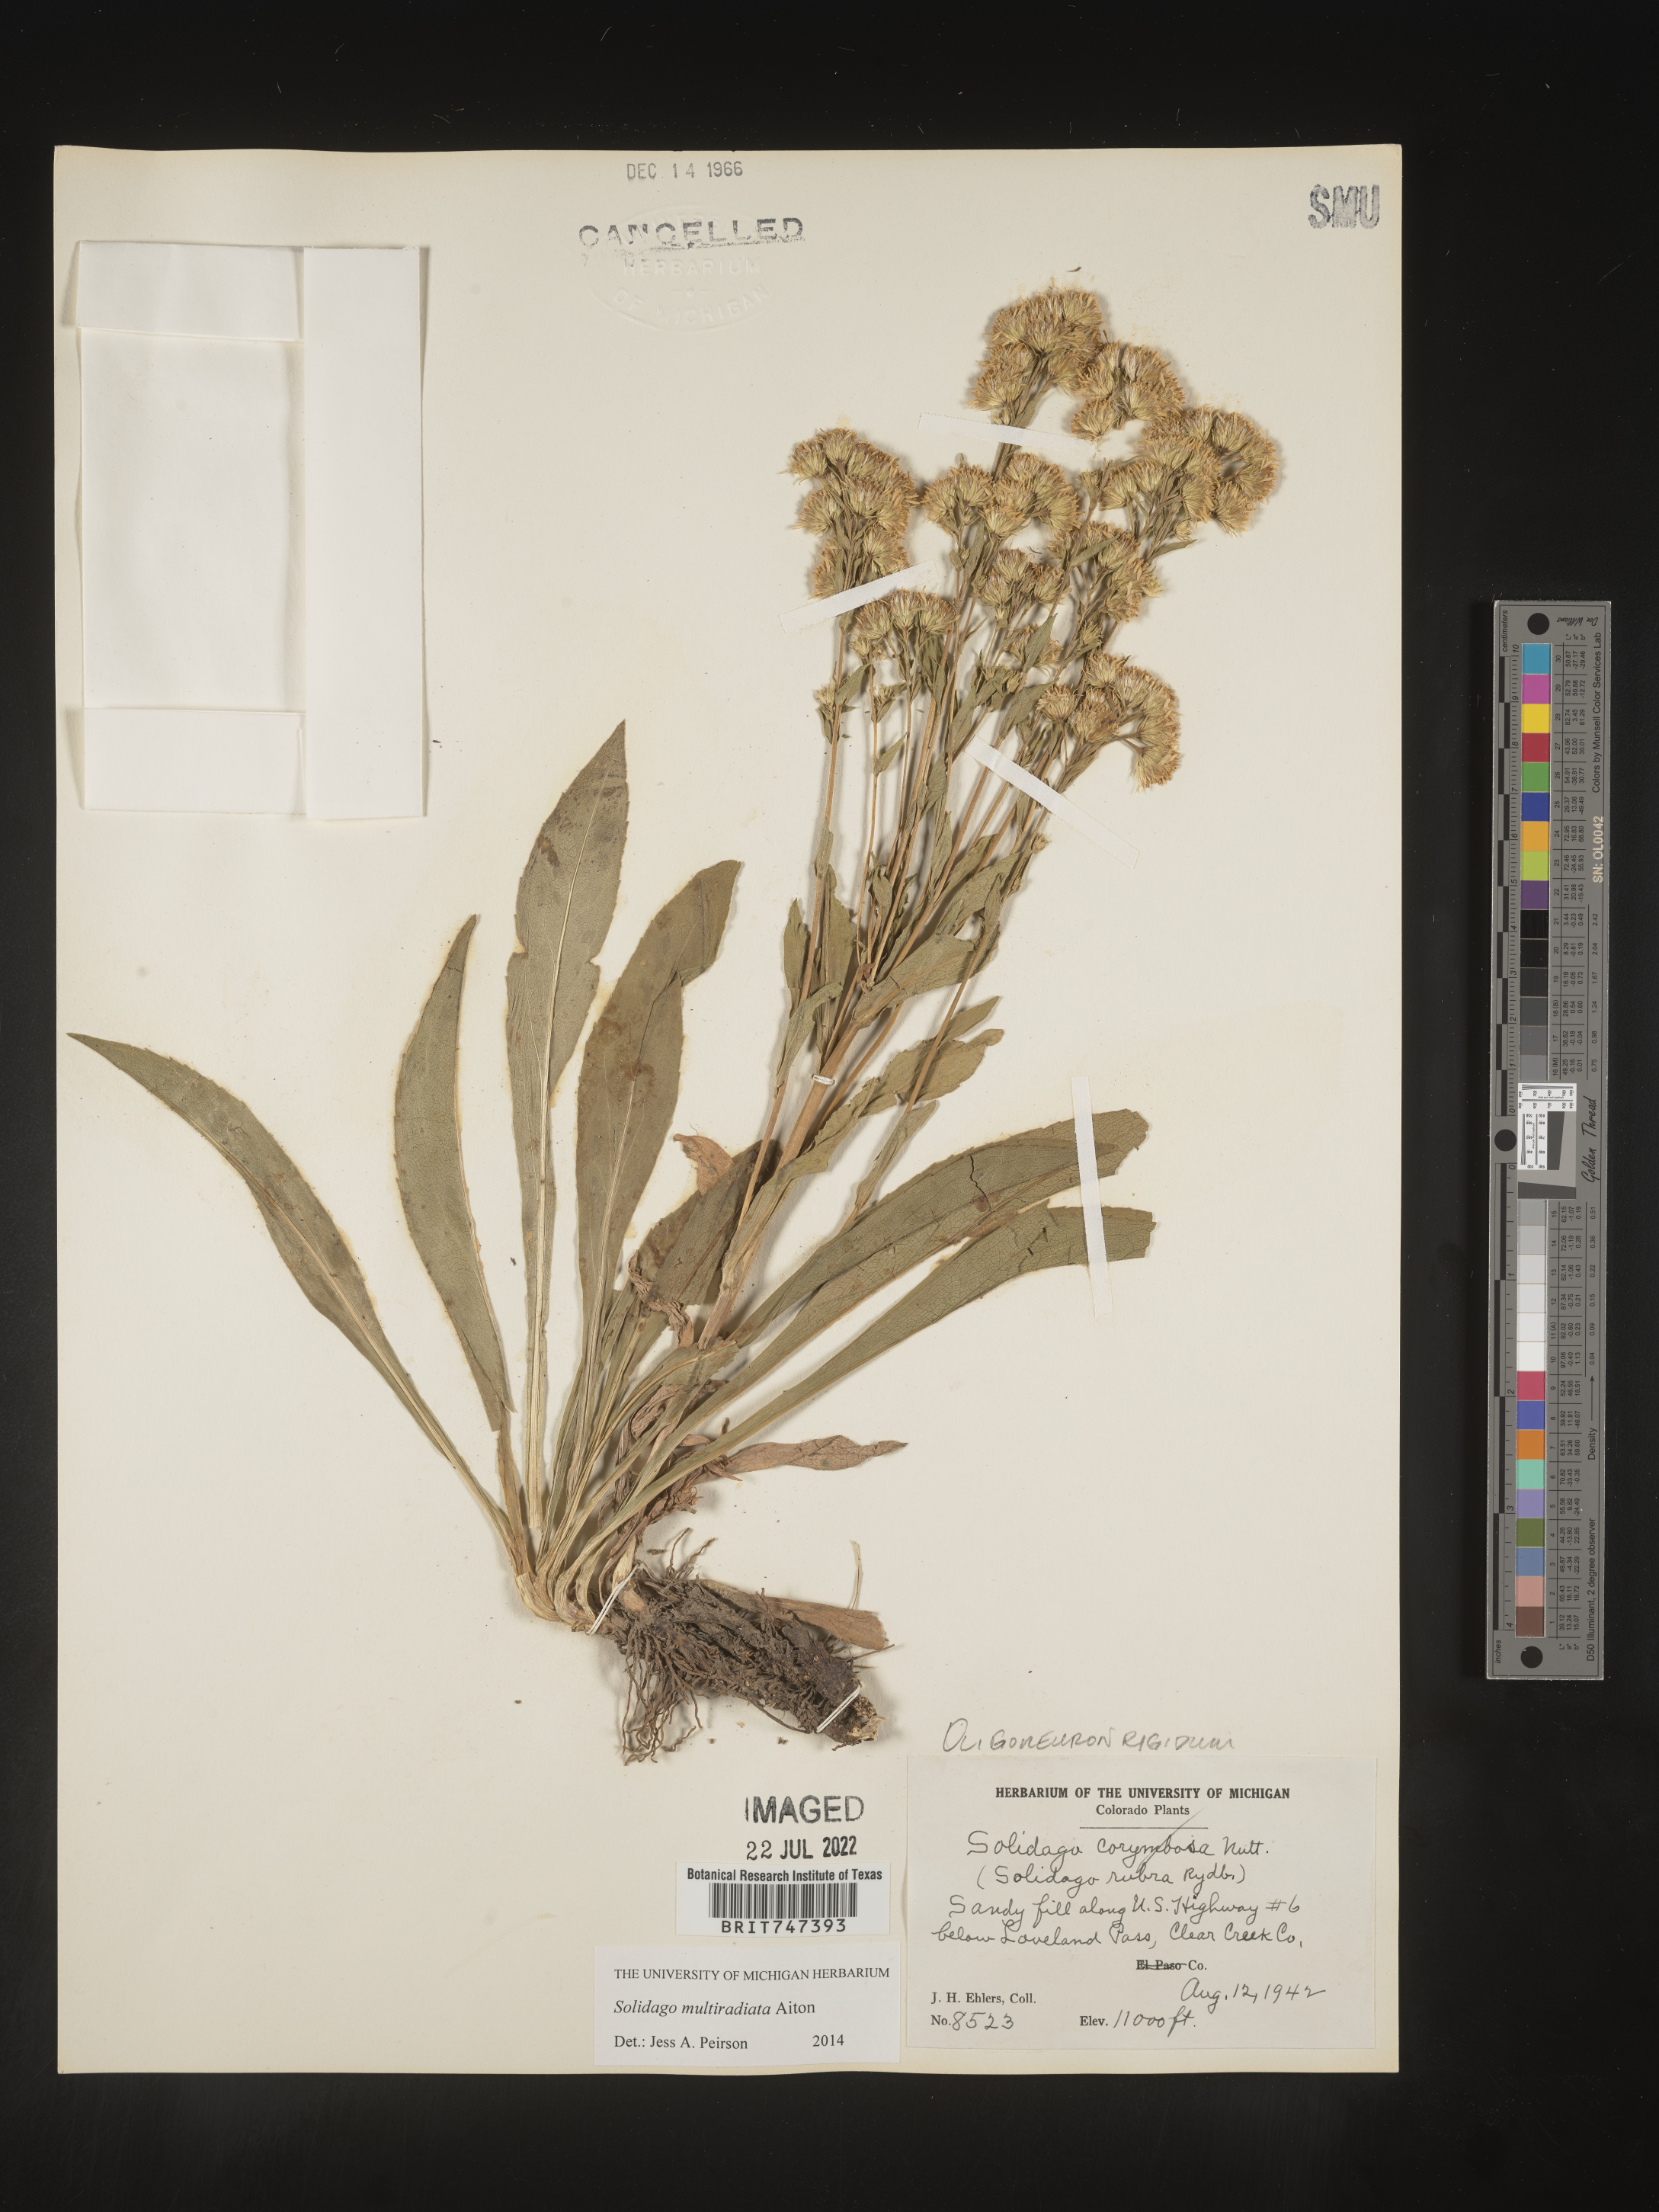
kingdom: Plantae
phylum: Tracheophyta
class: Magnoliopsida
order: Asterales
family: Asteraceae
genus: Solidago
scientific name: Solidago multiradiata
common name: Northern goldenrod
